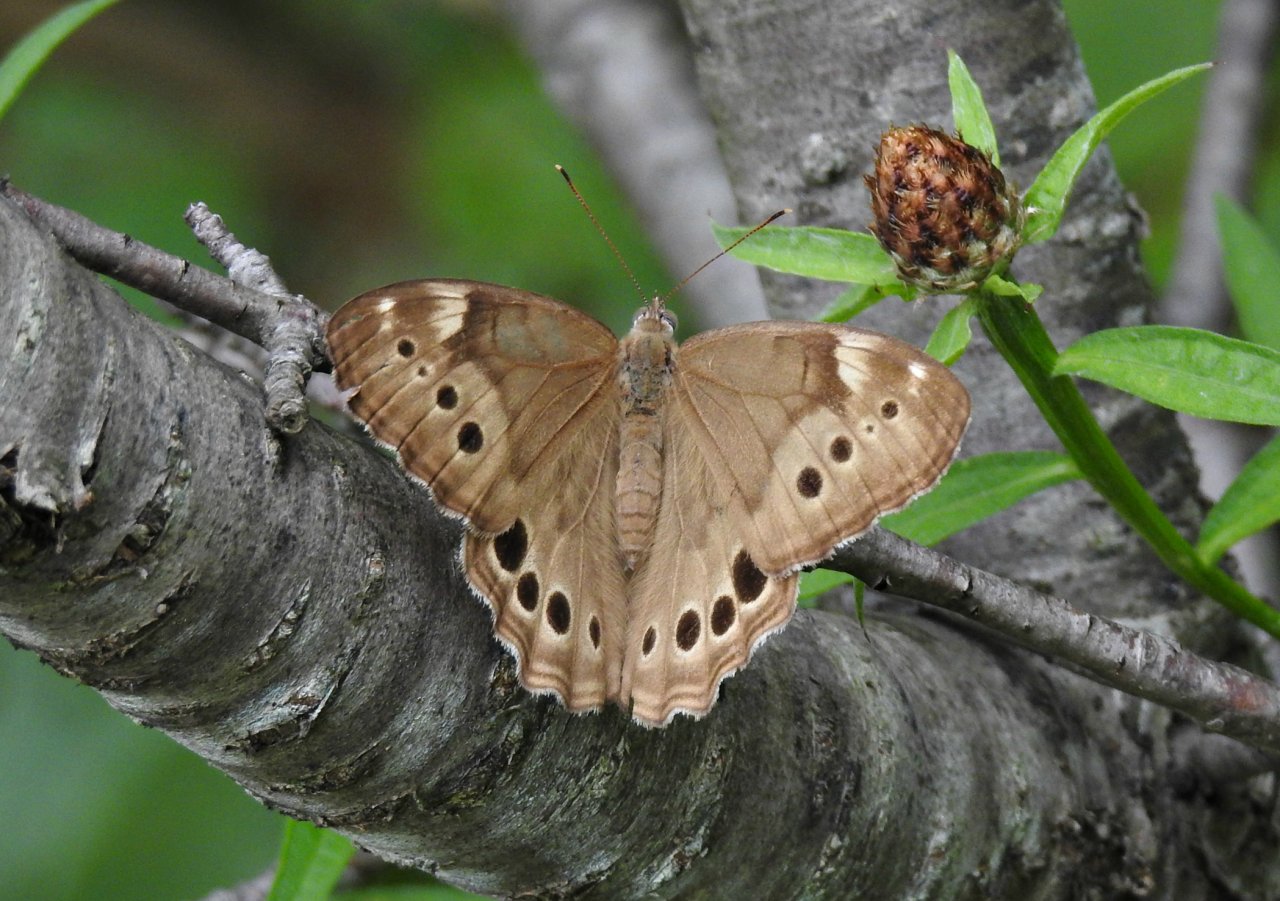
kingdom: Animalia
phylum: Arthropoda
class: Insecta
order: Lepidoptera
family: Nymphalidae
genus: Lethe
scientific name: Lethe anthedon
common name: Northern Pearly-Eye
